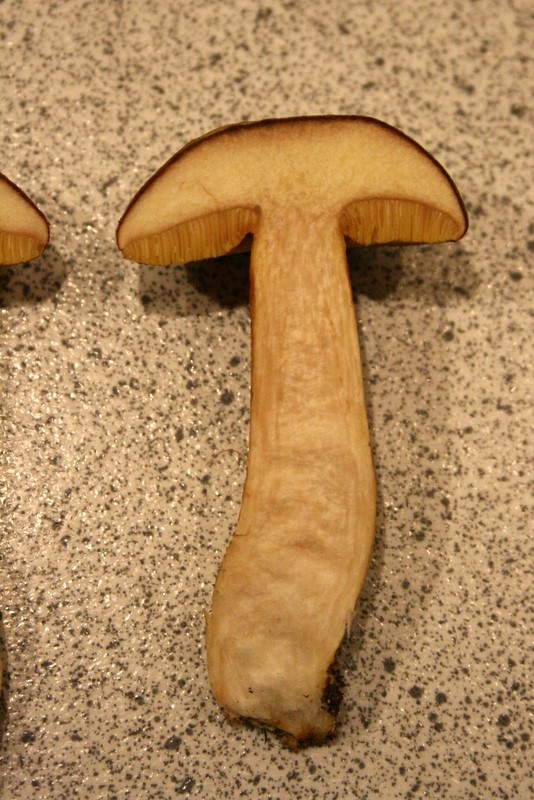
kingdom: Fungi
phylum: Basidiomycota
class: Agaricomycetes
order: Boletales
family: Boletaceae
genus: Xerocomus
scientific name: Xerocomus ferrugineus
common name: vaskeskinds-rørhat
